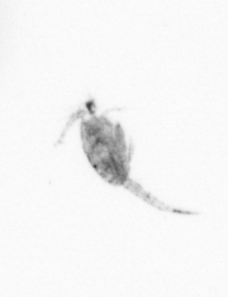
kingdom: Animalia
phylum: Arthropoda
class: Copepoda
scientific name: Copepoda
